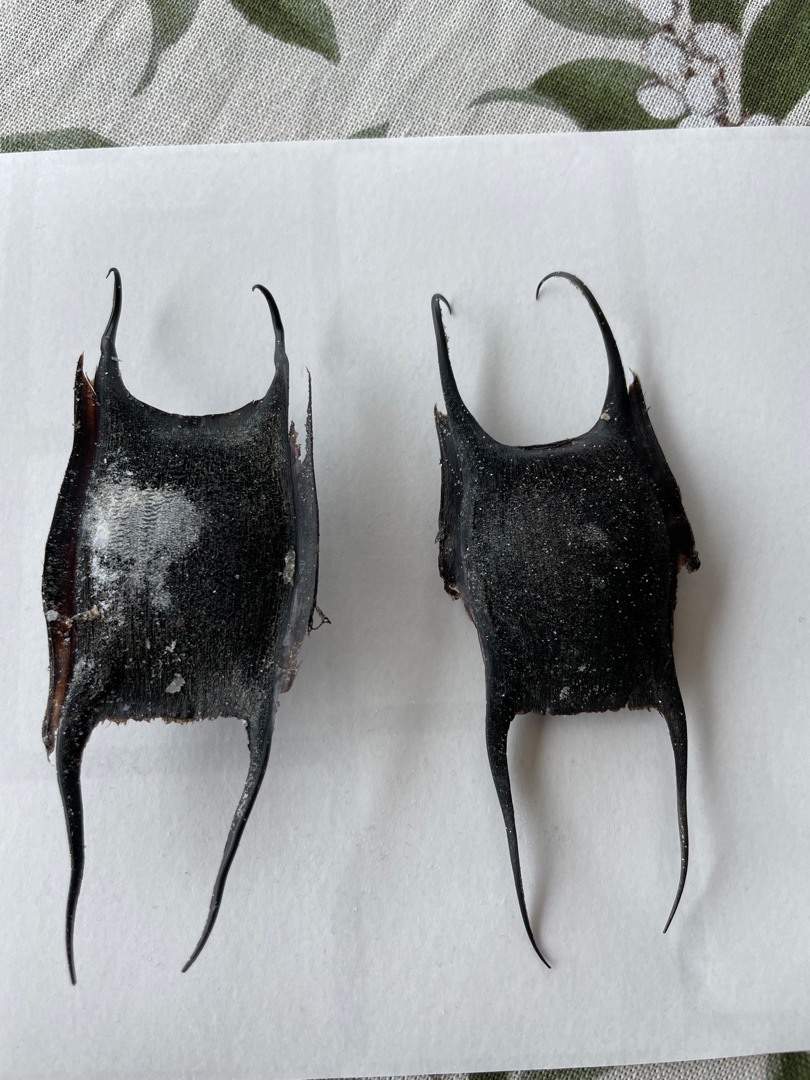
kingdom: Animalia
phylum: Chordata
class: Elasmobranchii
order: Rajiformes
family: Rajidae
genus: Amblyraja
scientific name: Amblyraja radiata
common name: Tærbe
